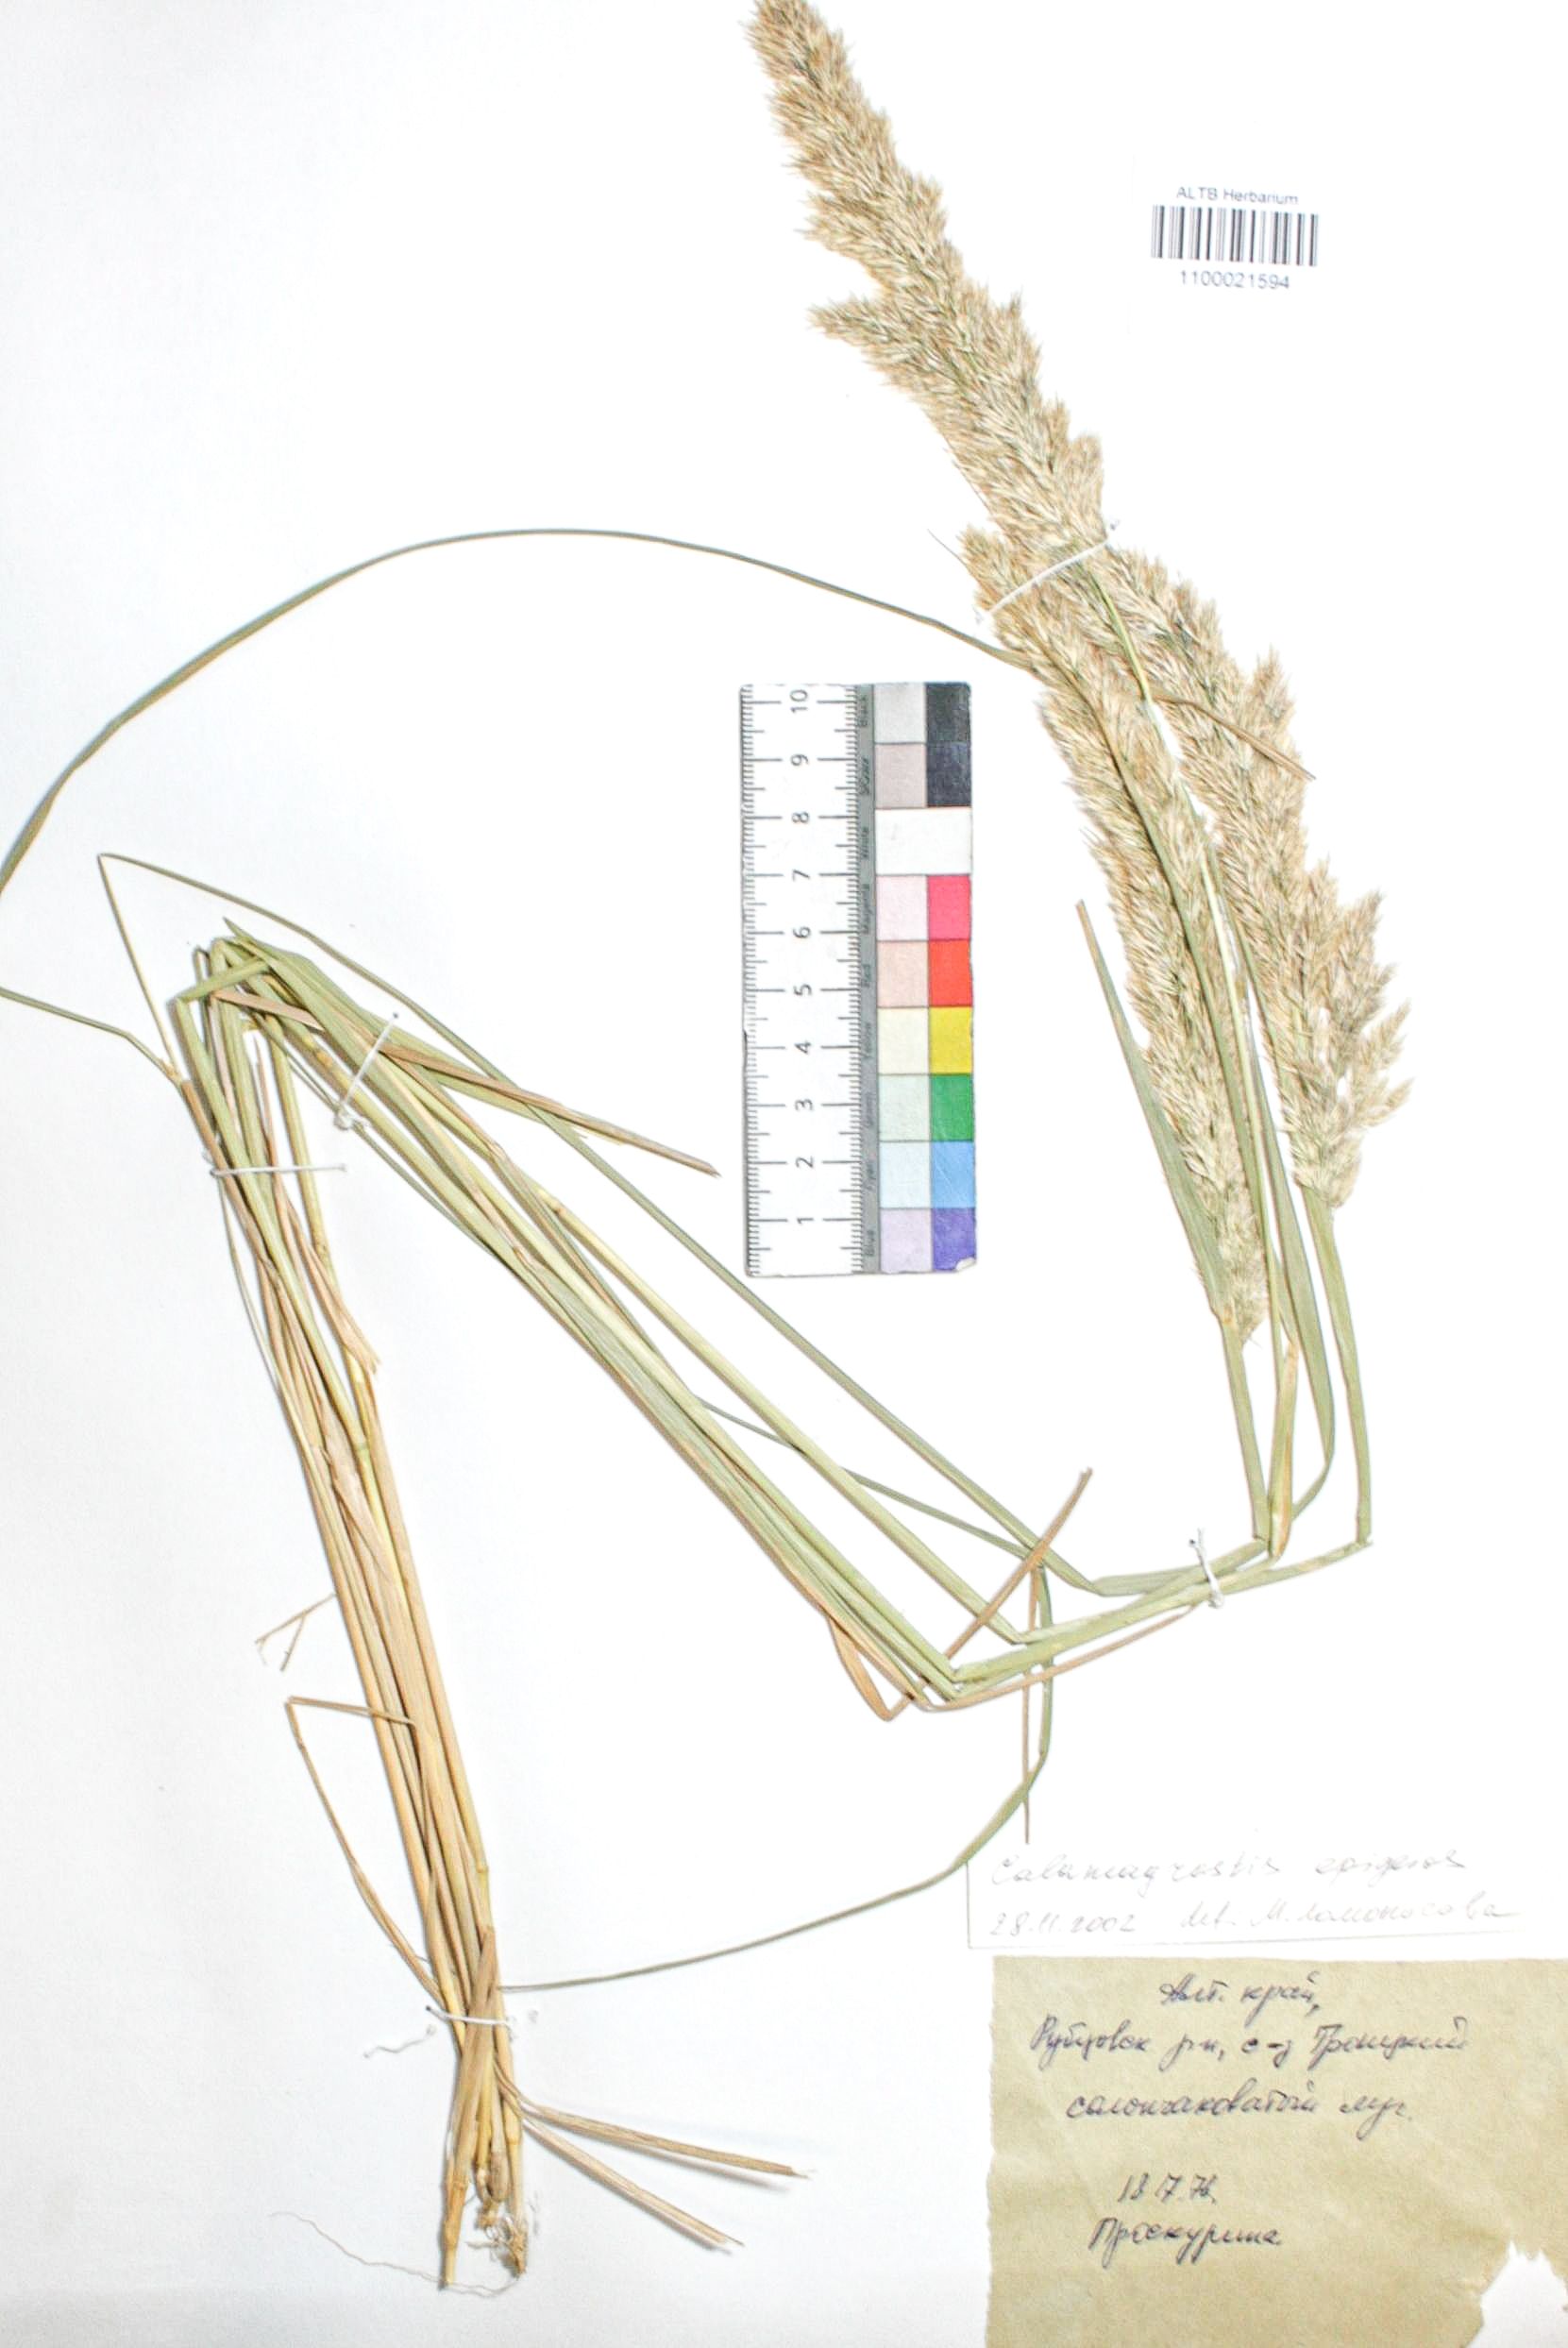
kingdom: Plantae
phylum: Tracheophyta
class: Liliopsida
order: Poales
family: Poaceae
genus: Calamagrostis
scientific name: Calamagrostis epigejos
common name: Wood small-reed
